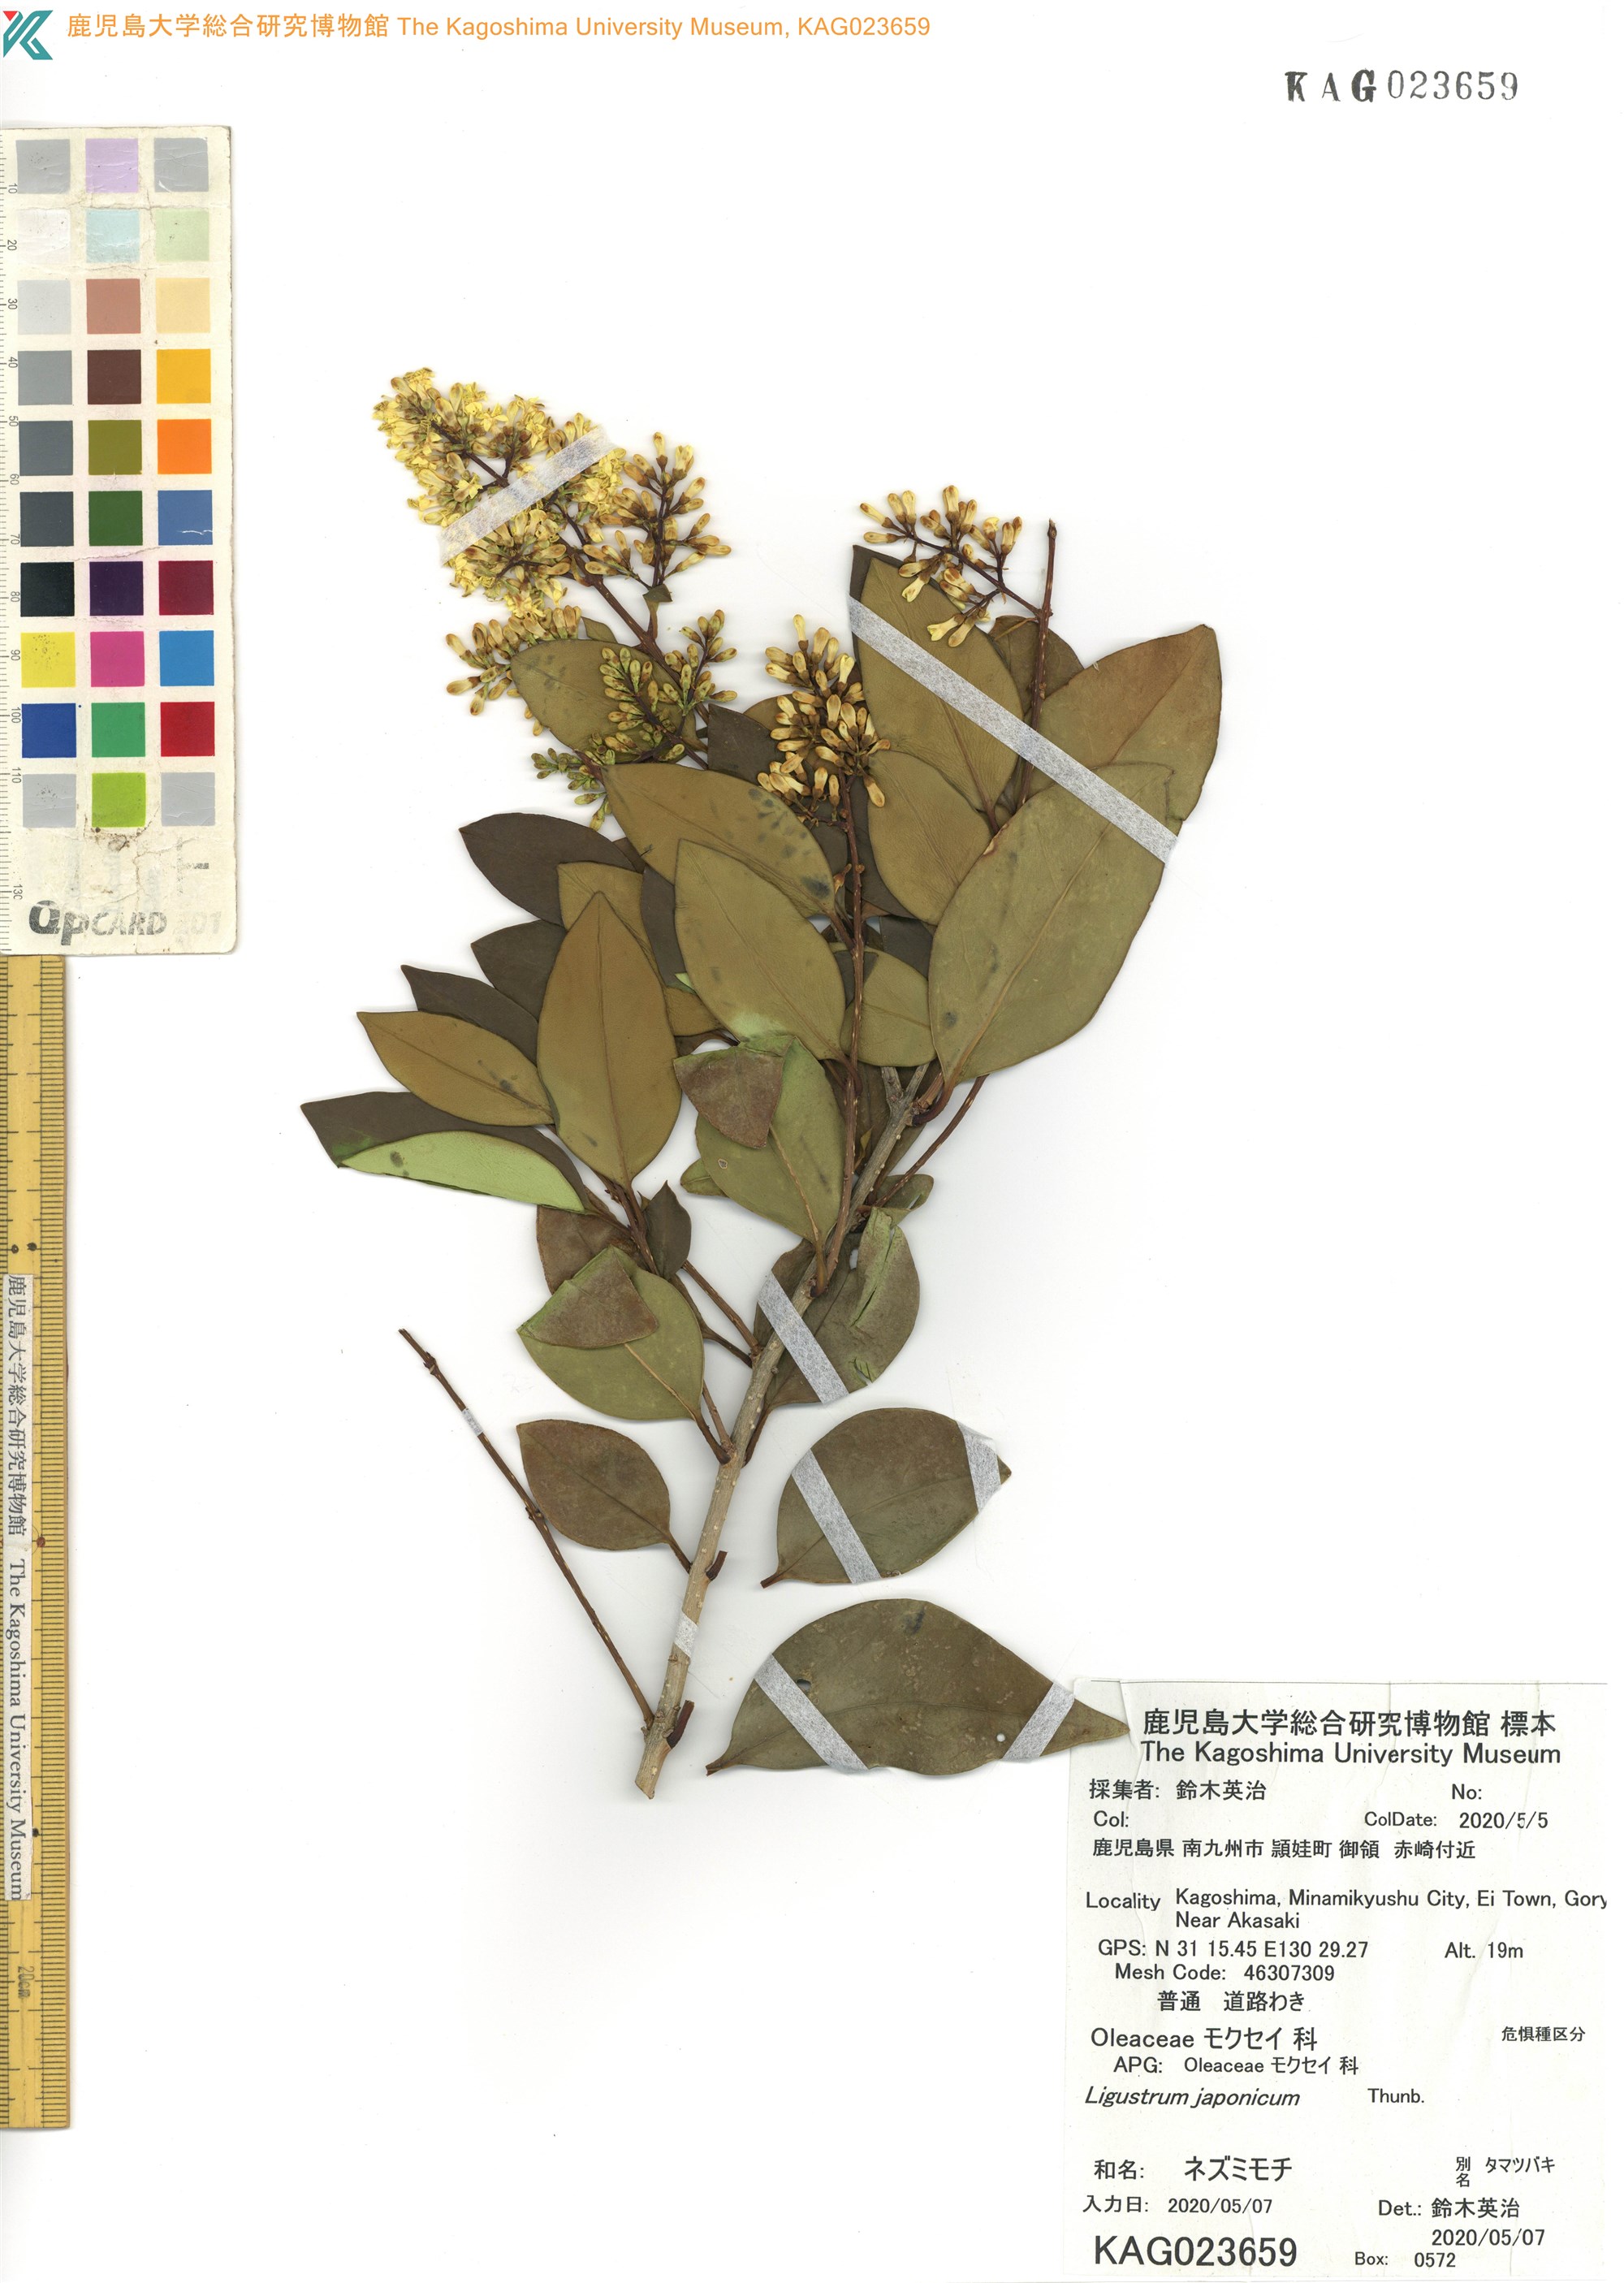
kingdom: Plantae
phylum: Tracheophyta
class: Magnoliopsida
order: Lamiales
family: Oleaceae
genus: Ligustrum
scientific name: Ligustrum japonicum
